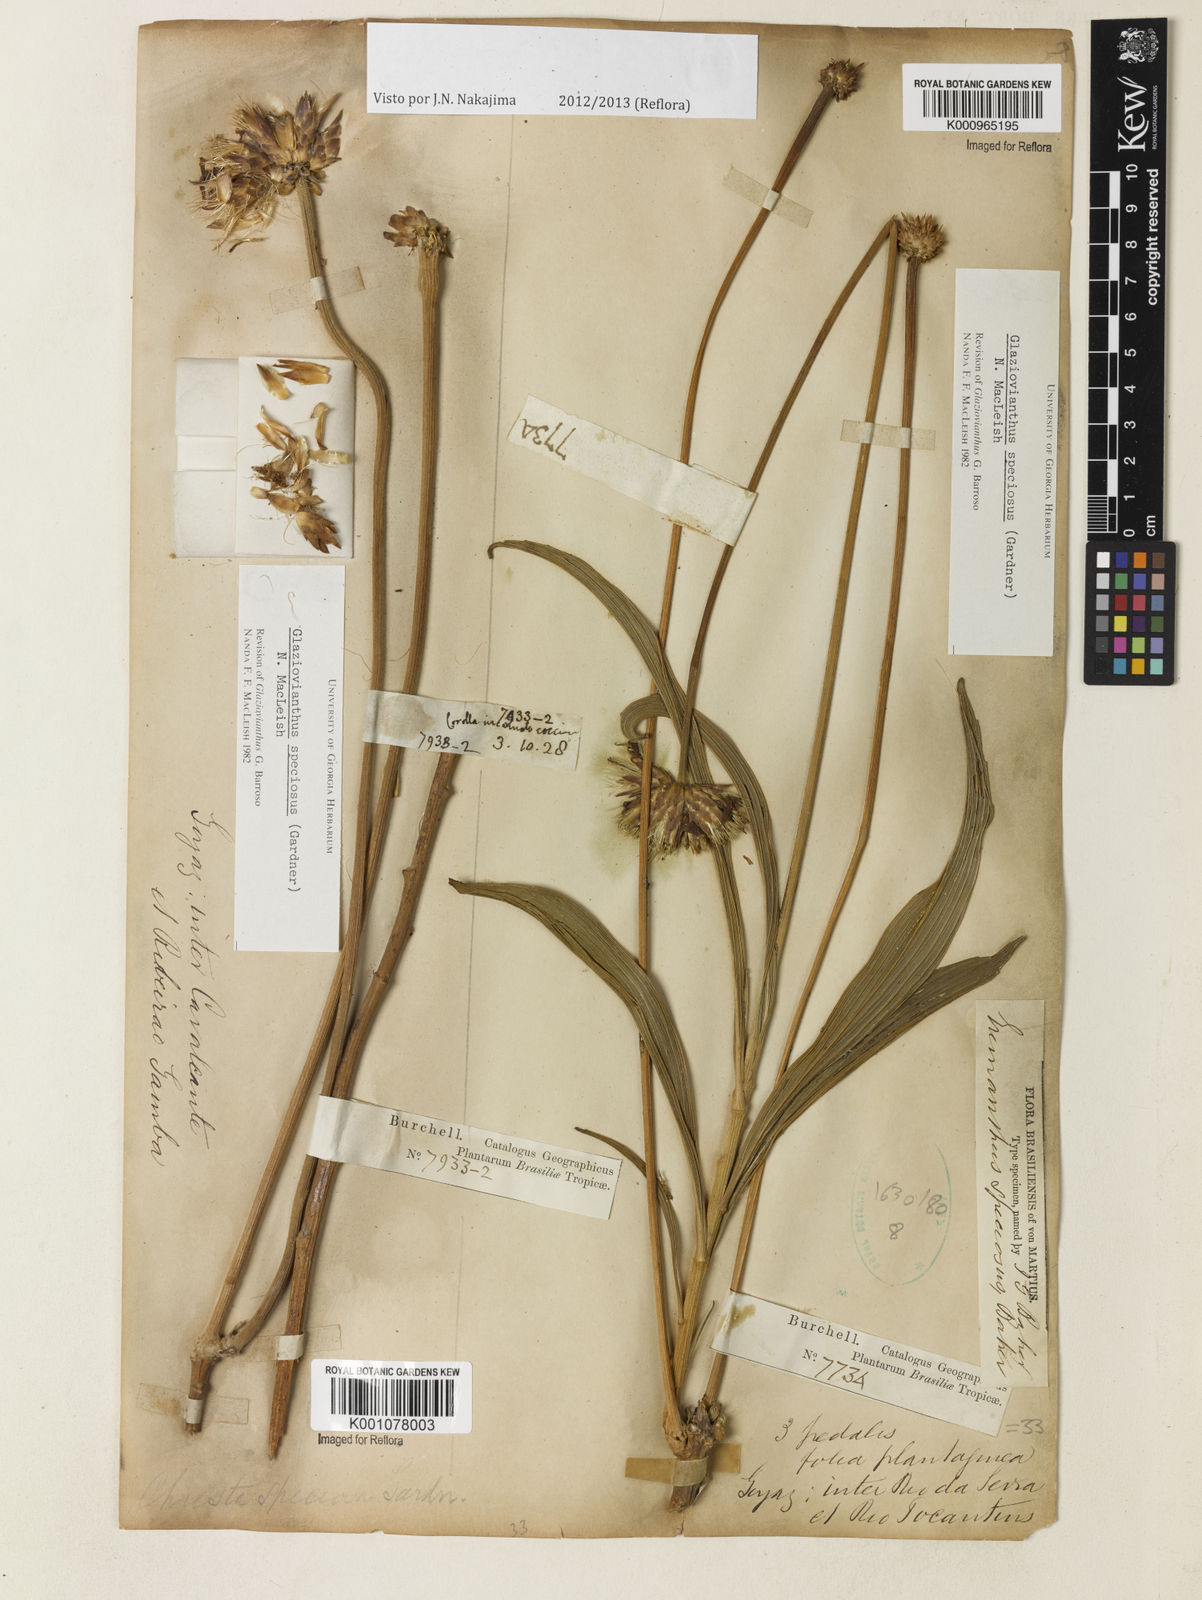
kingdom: Plantae
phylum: Tracheophyta
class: Magnoliopsida
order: Asterales
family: Asteraceae
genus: Chresta
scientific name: Chresta speciosa
